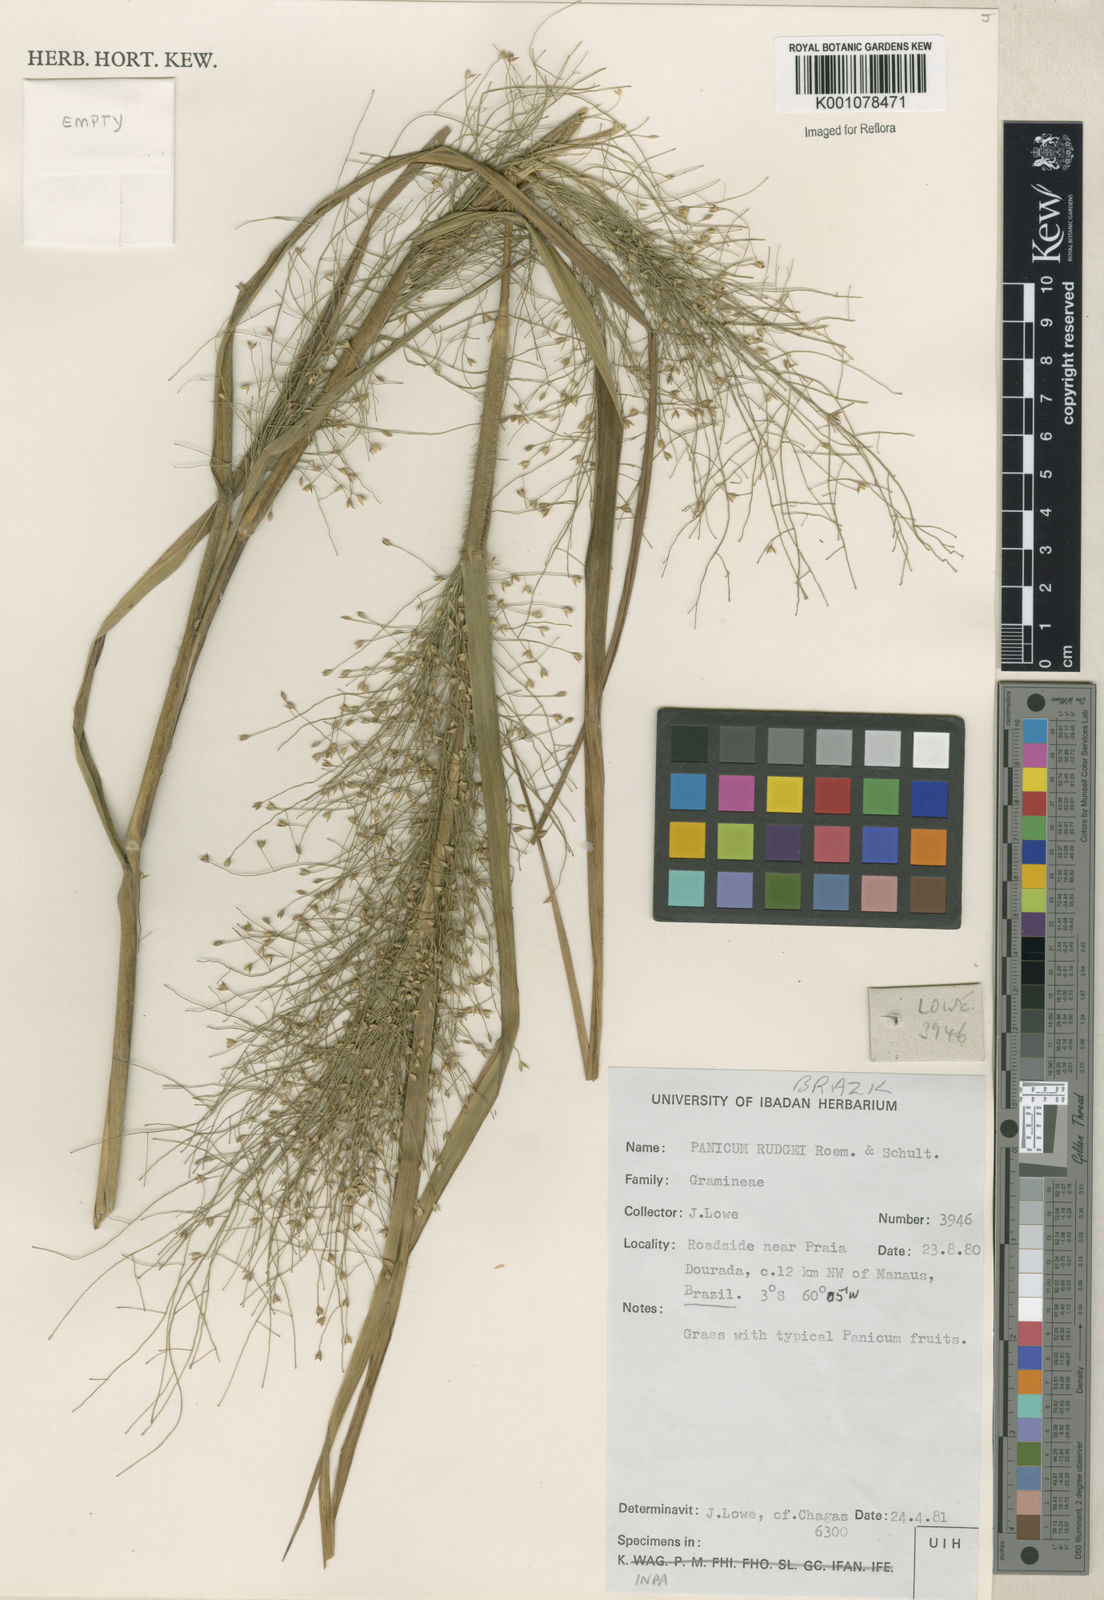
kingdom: Plantae
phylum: Tracheophyta
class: Liliopsida
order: Poales
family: Poaceae
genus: Panicum
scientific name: Panicum rudgei
